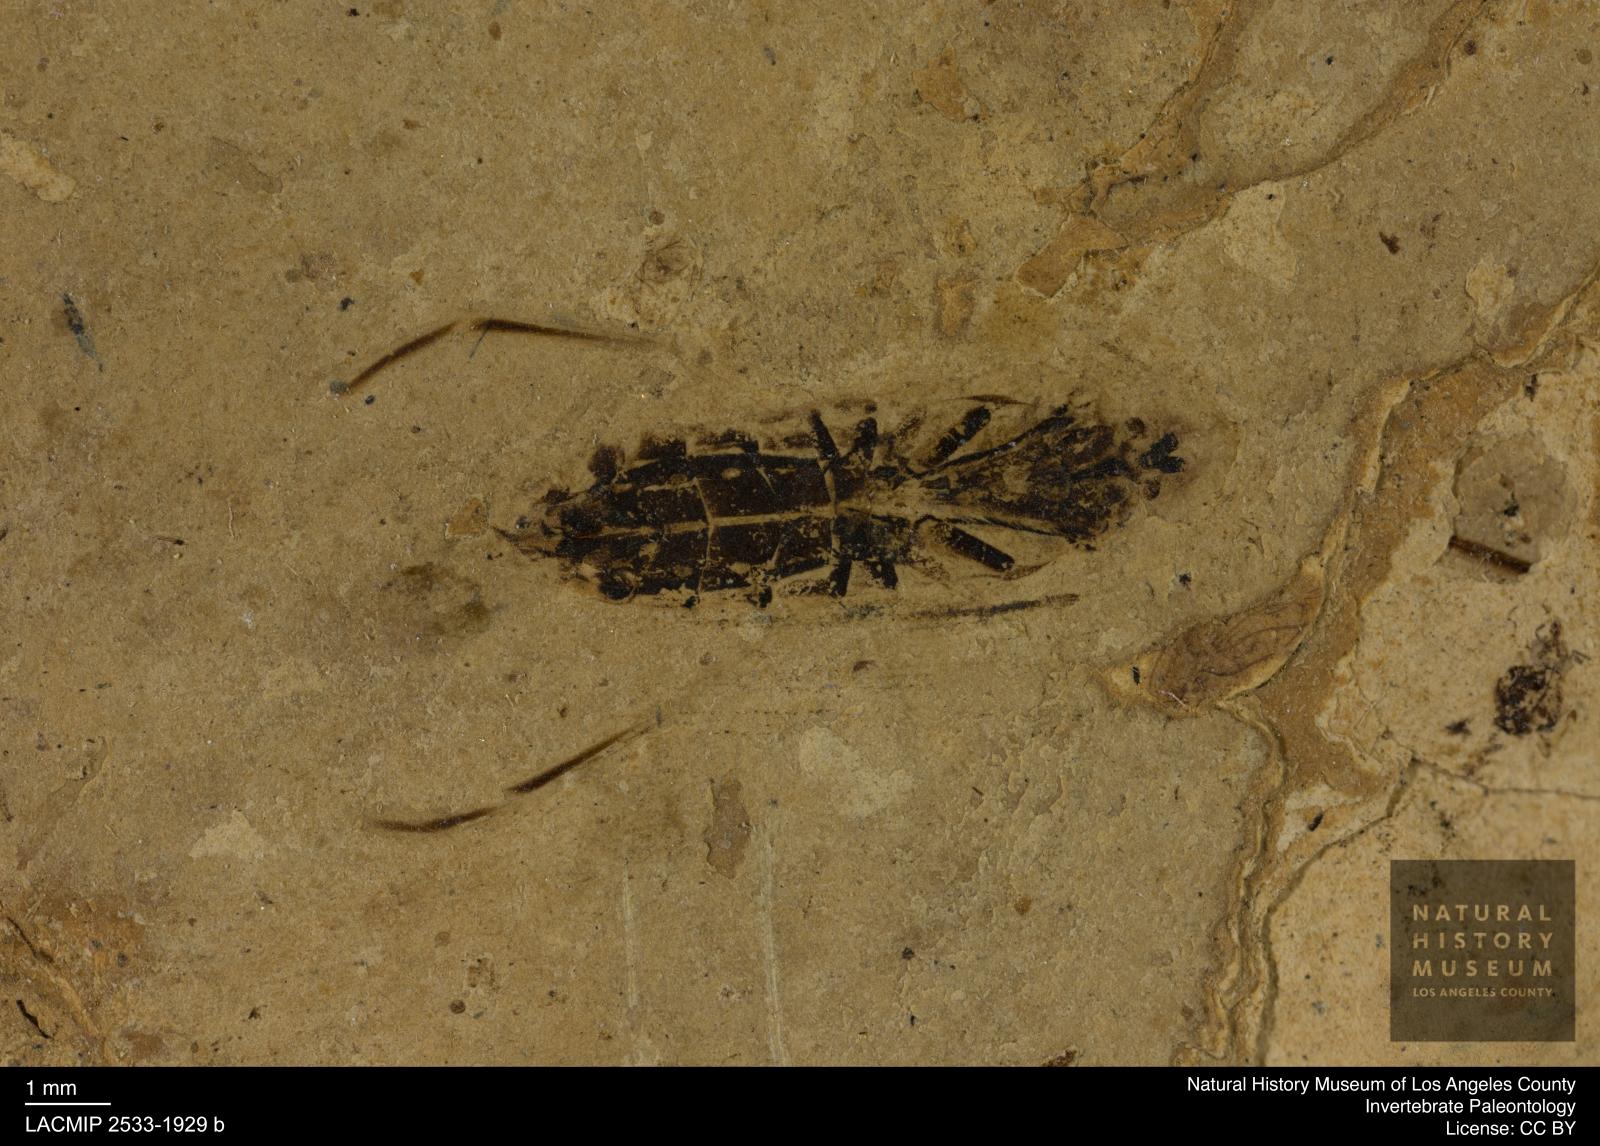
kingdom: Animalia
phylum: Arthropoda
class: Insecta
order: Hemiptera
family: Notonectidae
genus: Anisops
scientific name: Anisops Notonecta deichmuelleri
